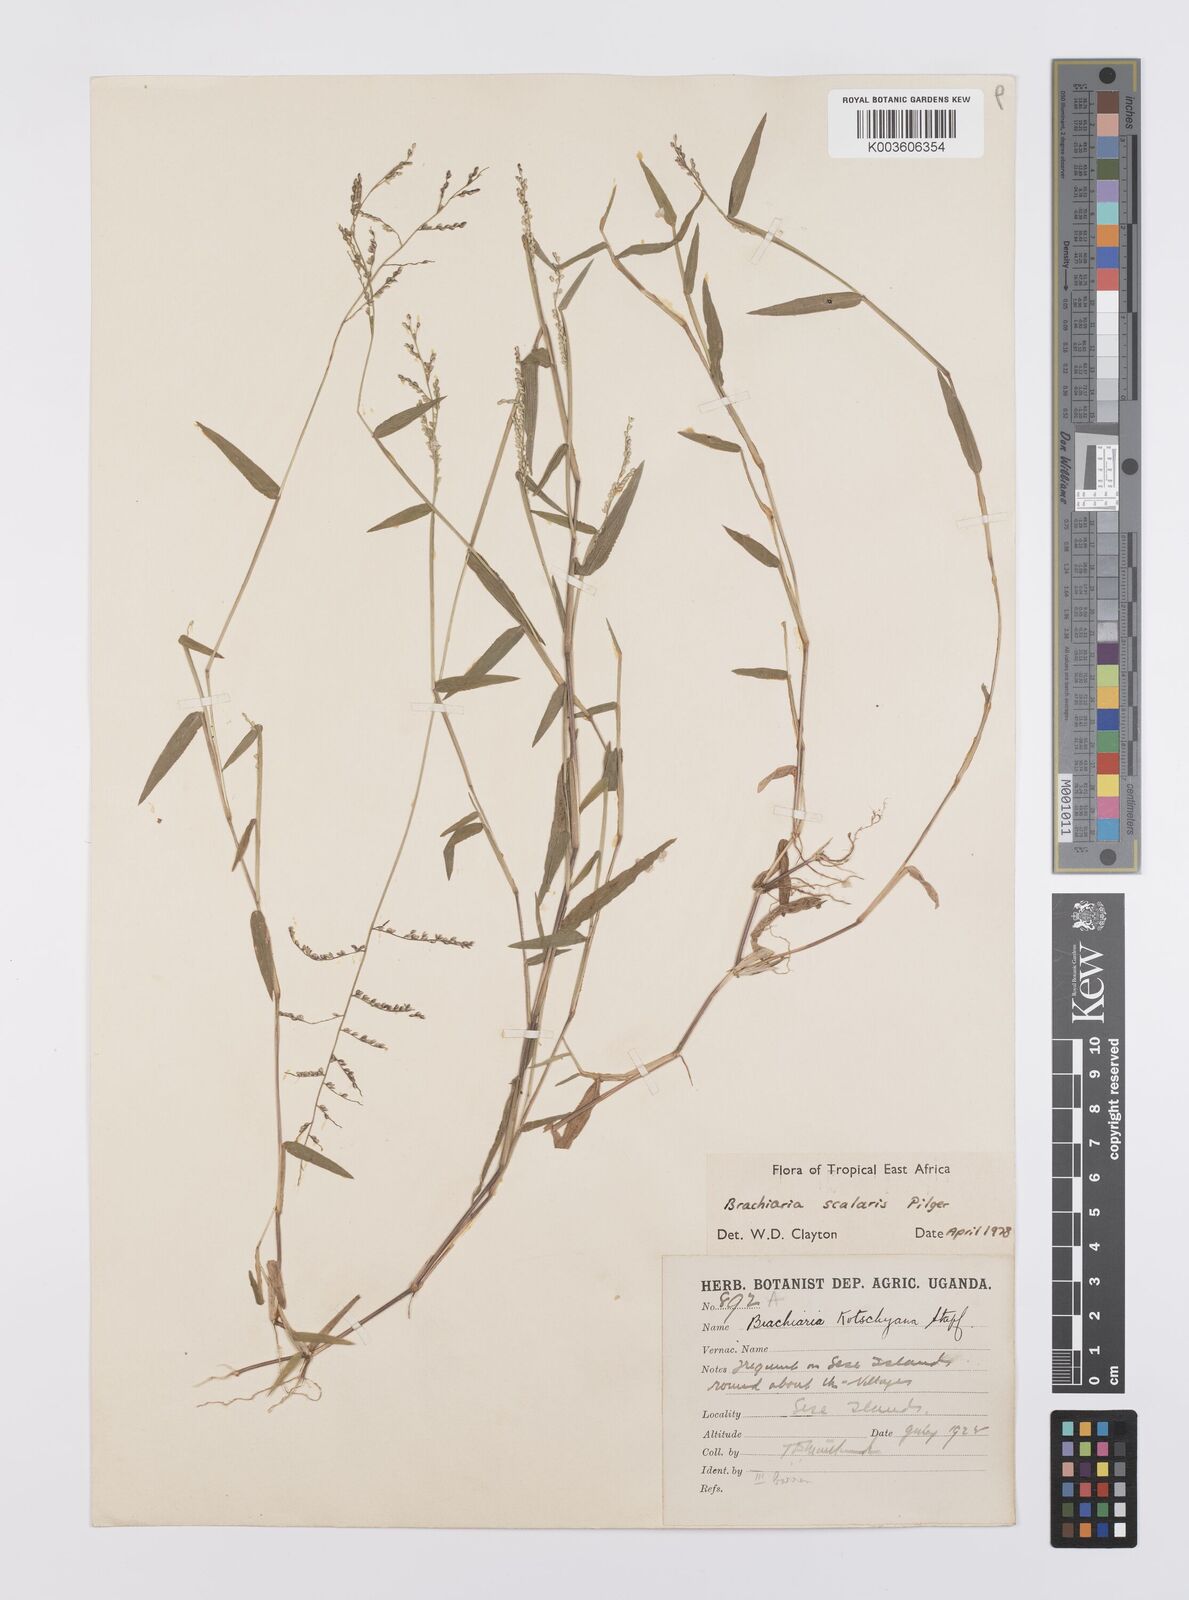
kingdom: Plantae
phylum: Tracheophyta
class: Liliopsida
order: Poales
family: Poaceae
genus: Urochloa
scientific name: Urochloa comata
